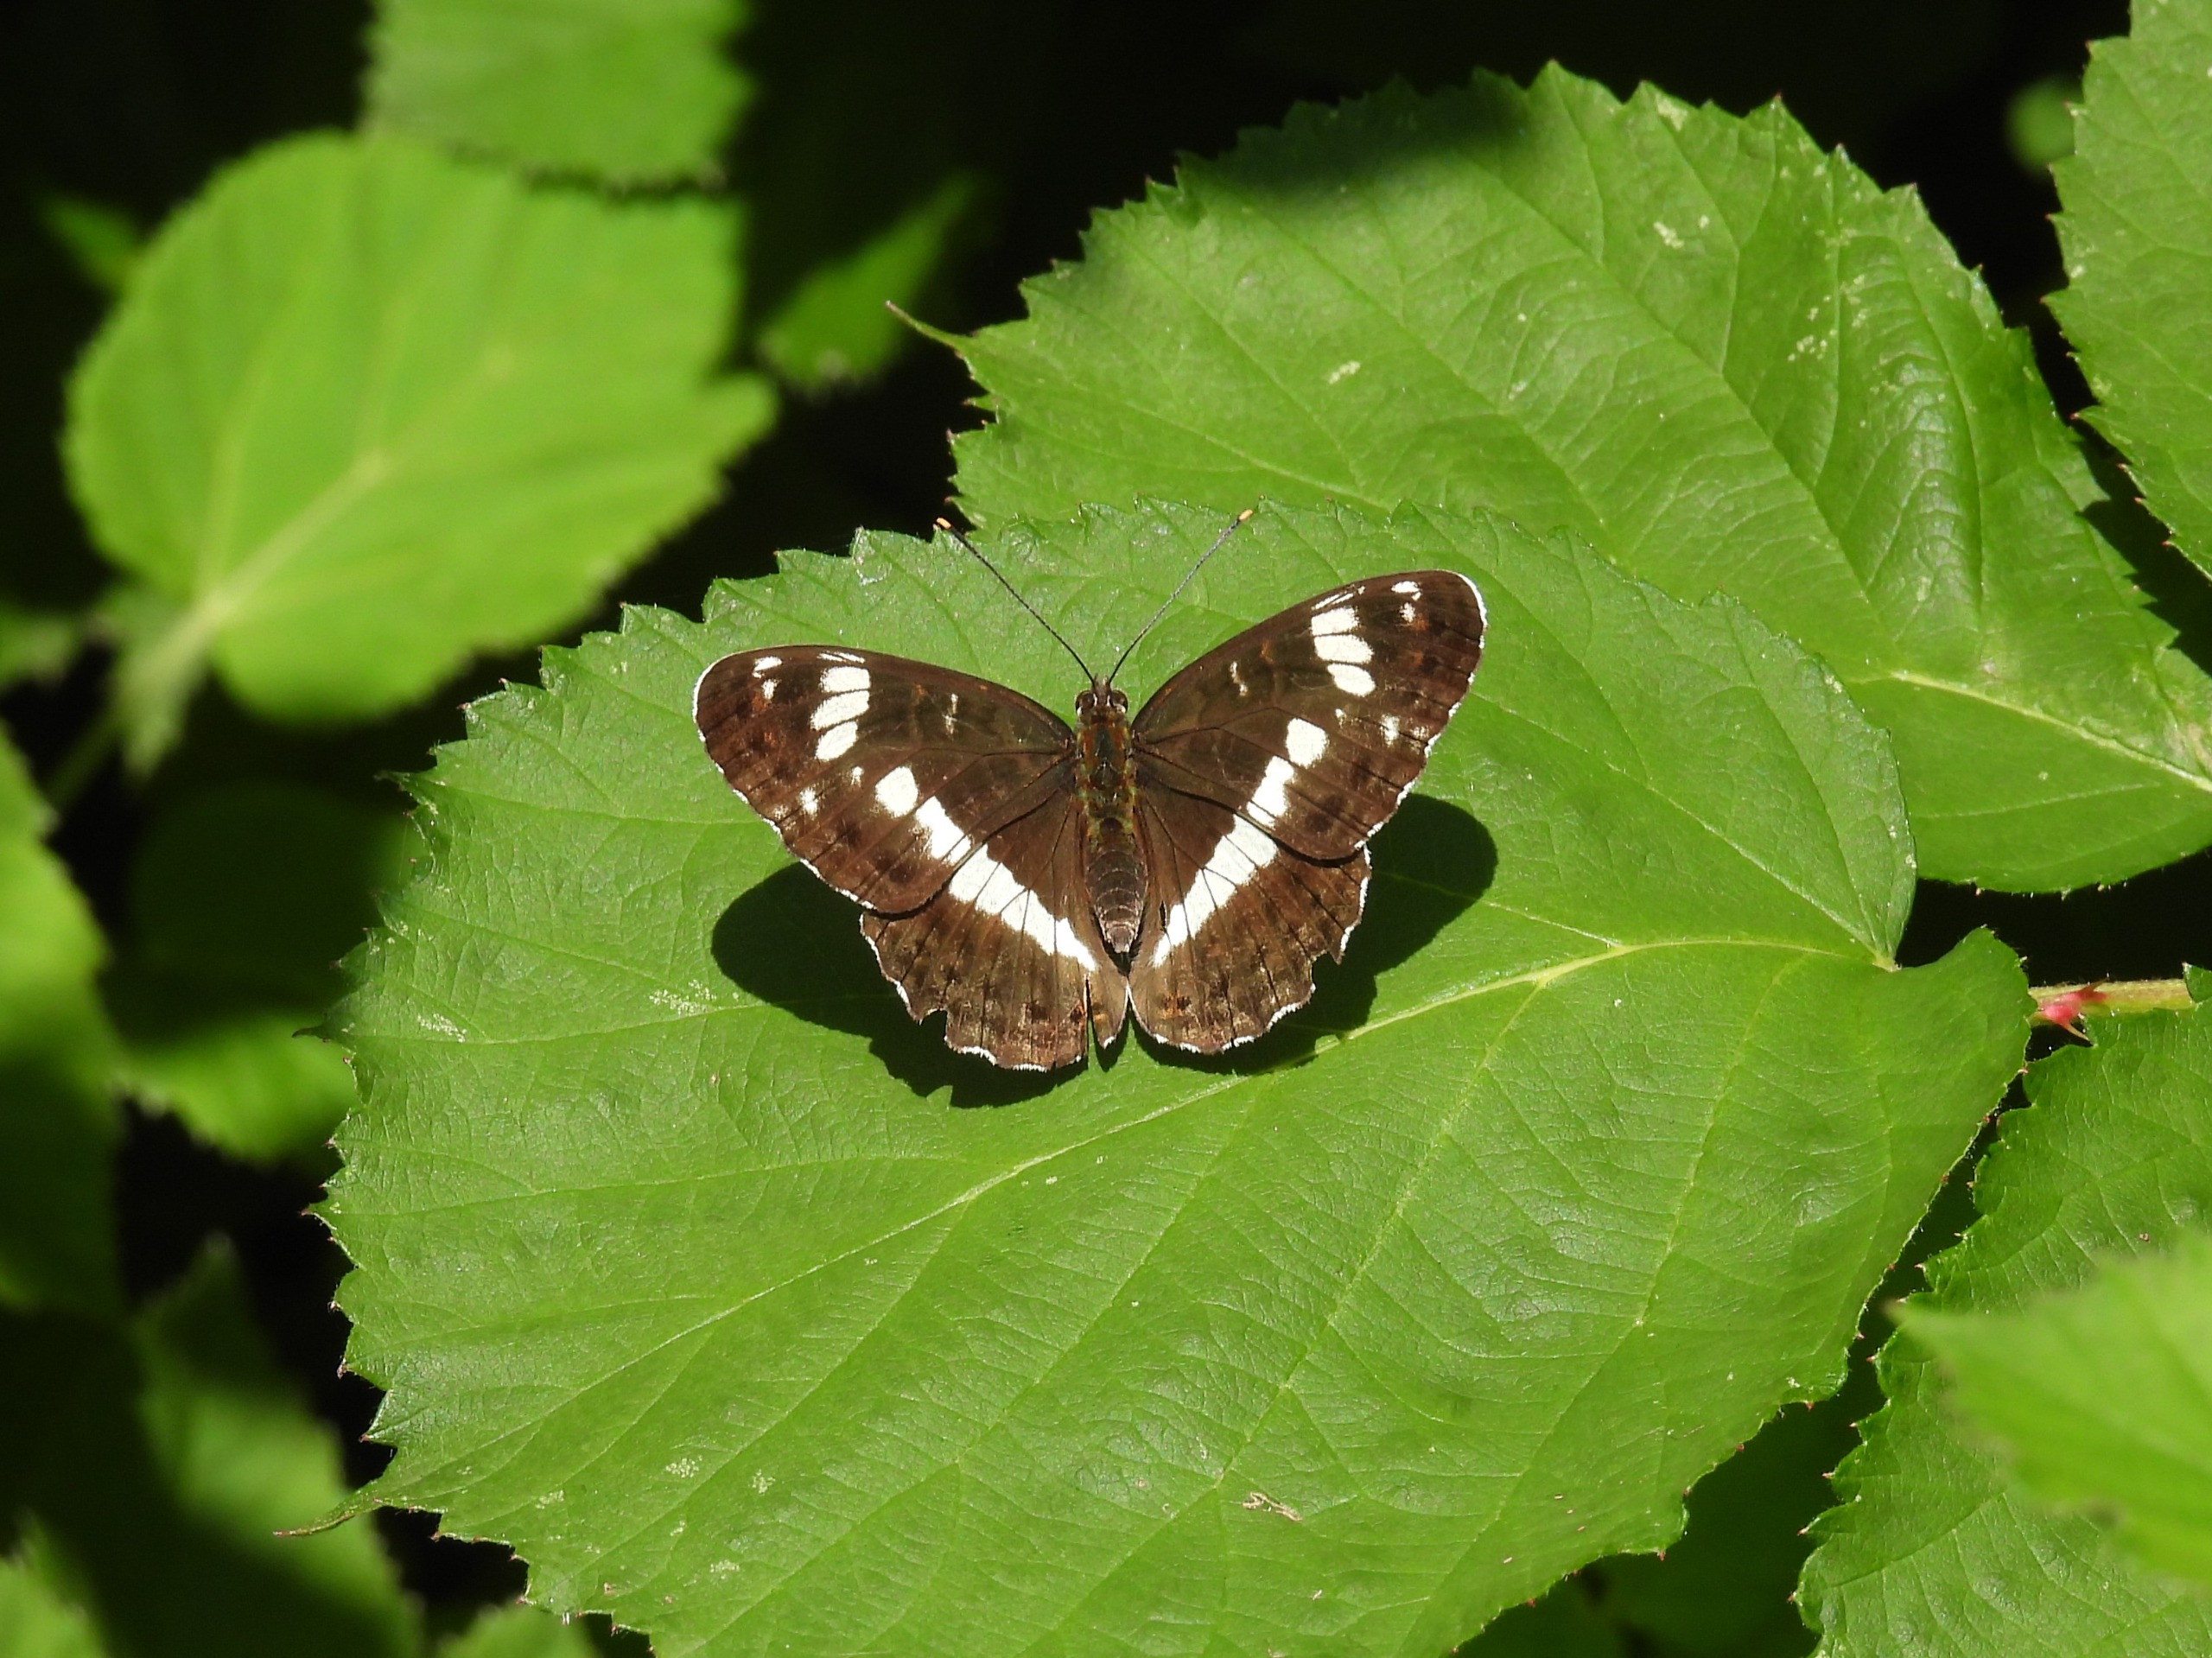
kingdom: Animalia
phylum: Arthropoda
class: Insecta
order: Lepidoptera
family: Nymphalidae
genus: Ladoga
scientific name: Ladoga camilla
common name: Hvid admiral
